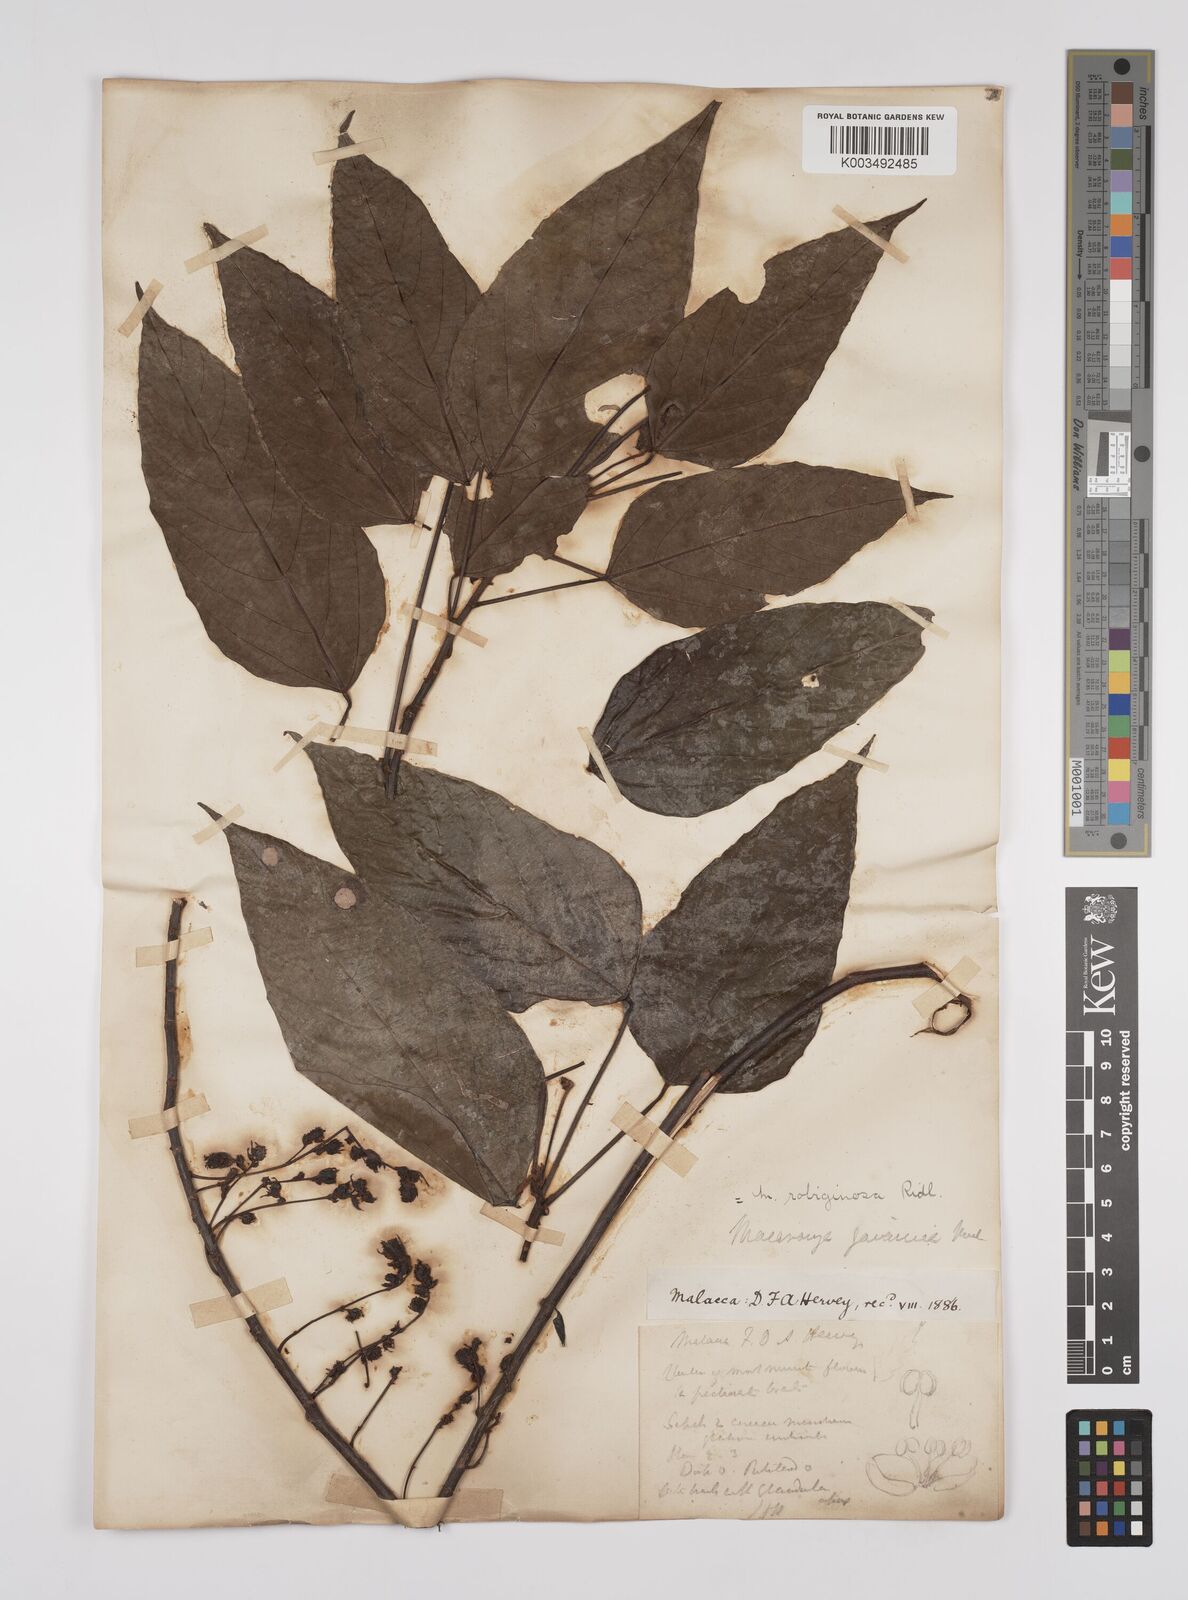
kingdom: Plantae
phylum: Tracheophyta
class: Magnoliopsida
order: Malpighiales
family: Euphorbiaceae
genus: Macaranga
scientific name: Macaranga heynei
